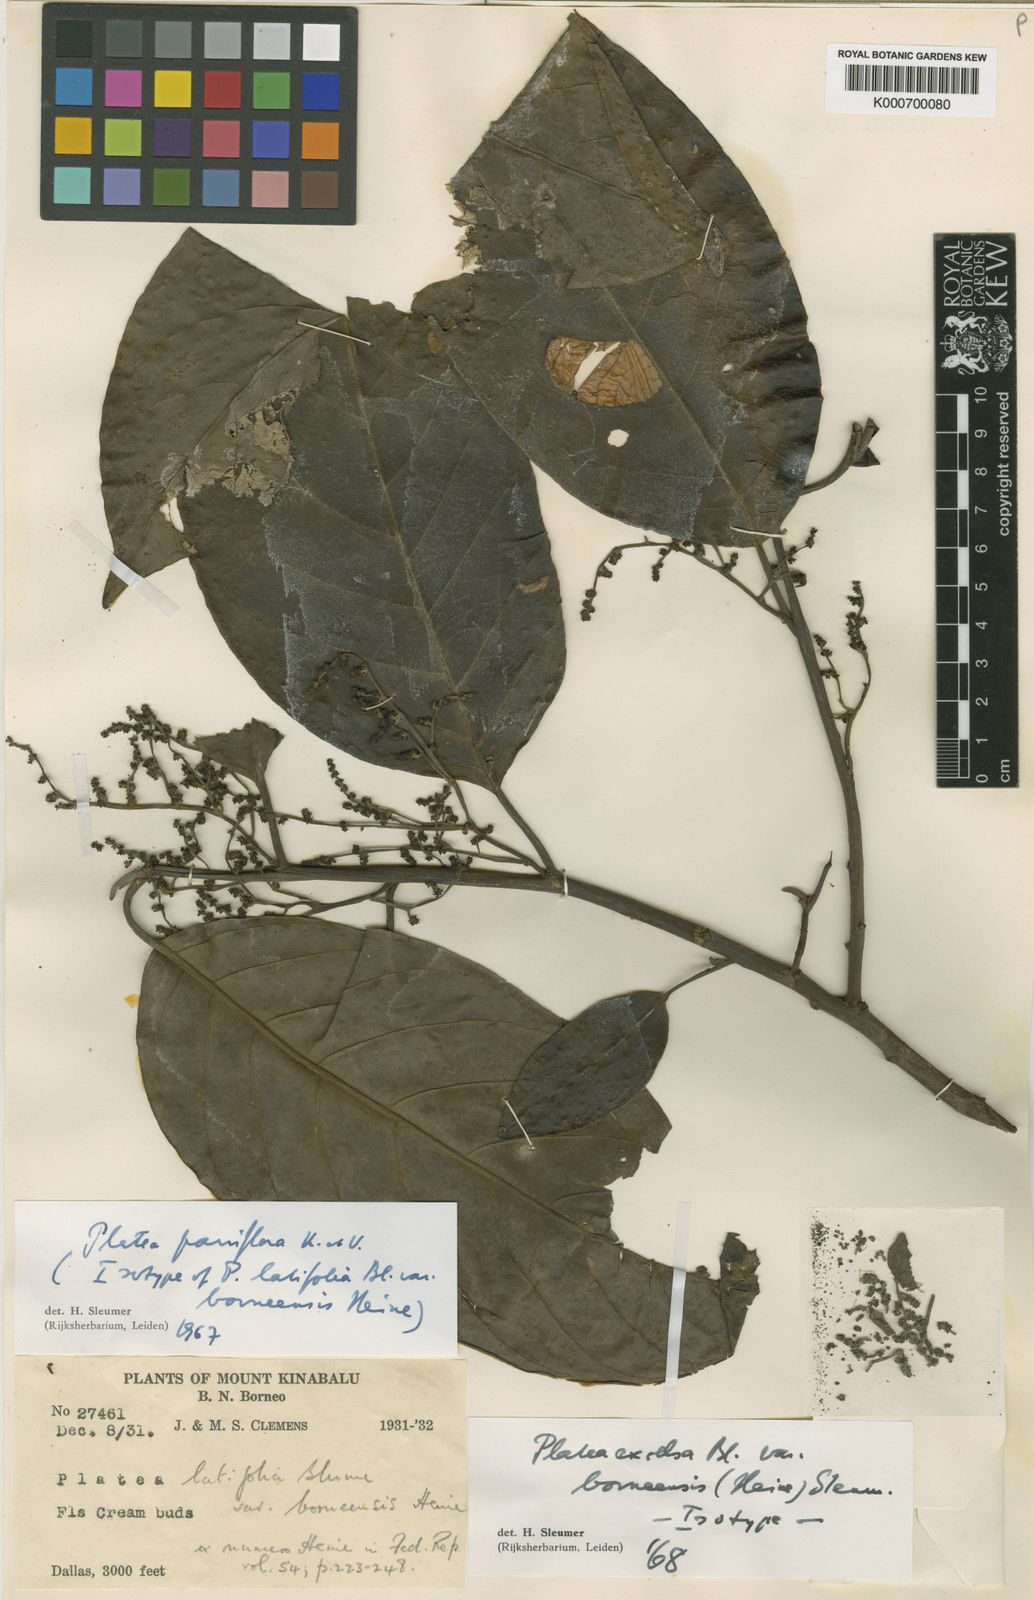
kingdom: Plantae
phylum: Tracheophyta
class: Magnoliopsida
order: Metteniusales
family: Metteniusaceae
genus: Platea
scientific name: Platea excelsa
